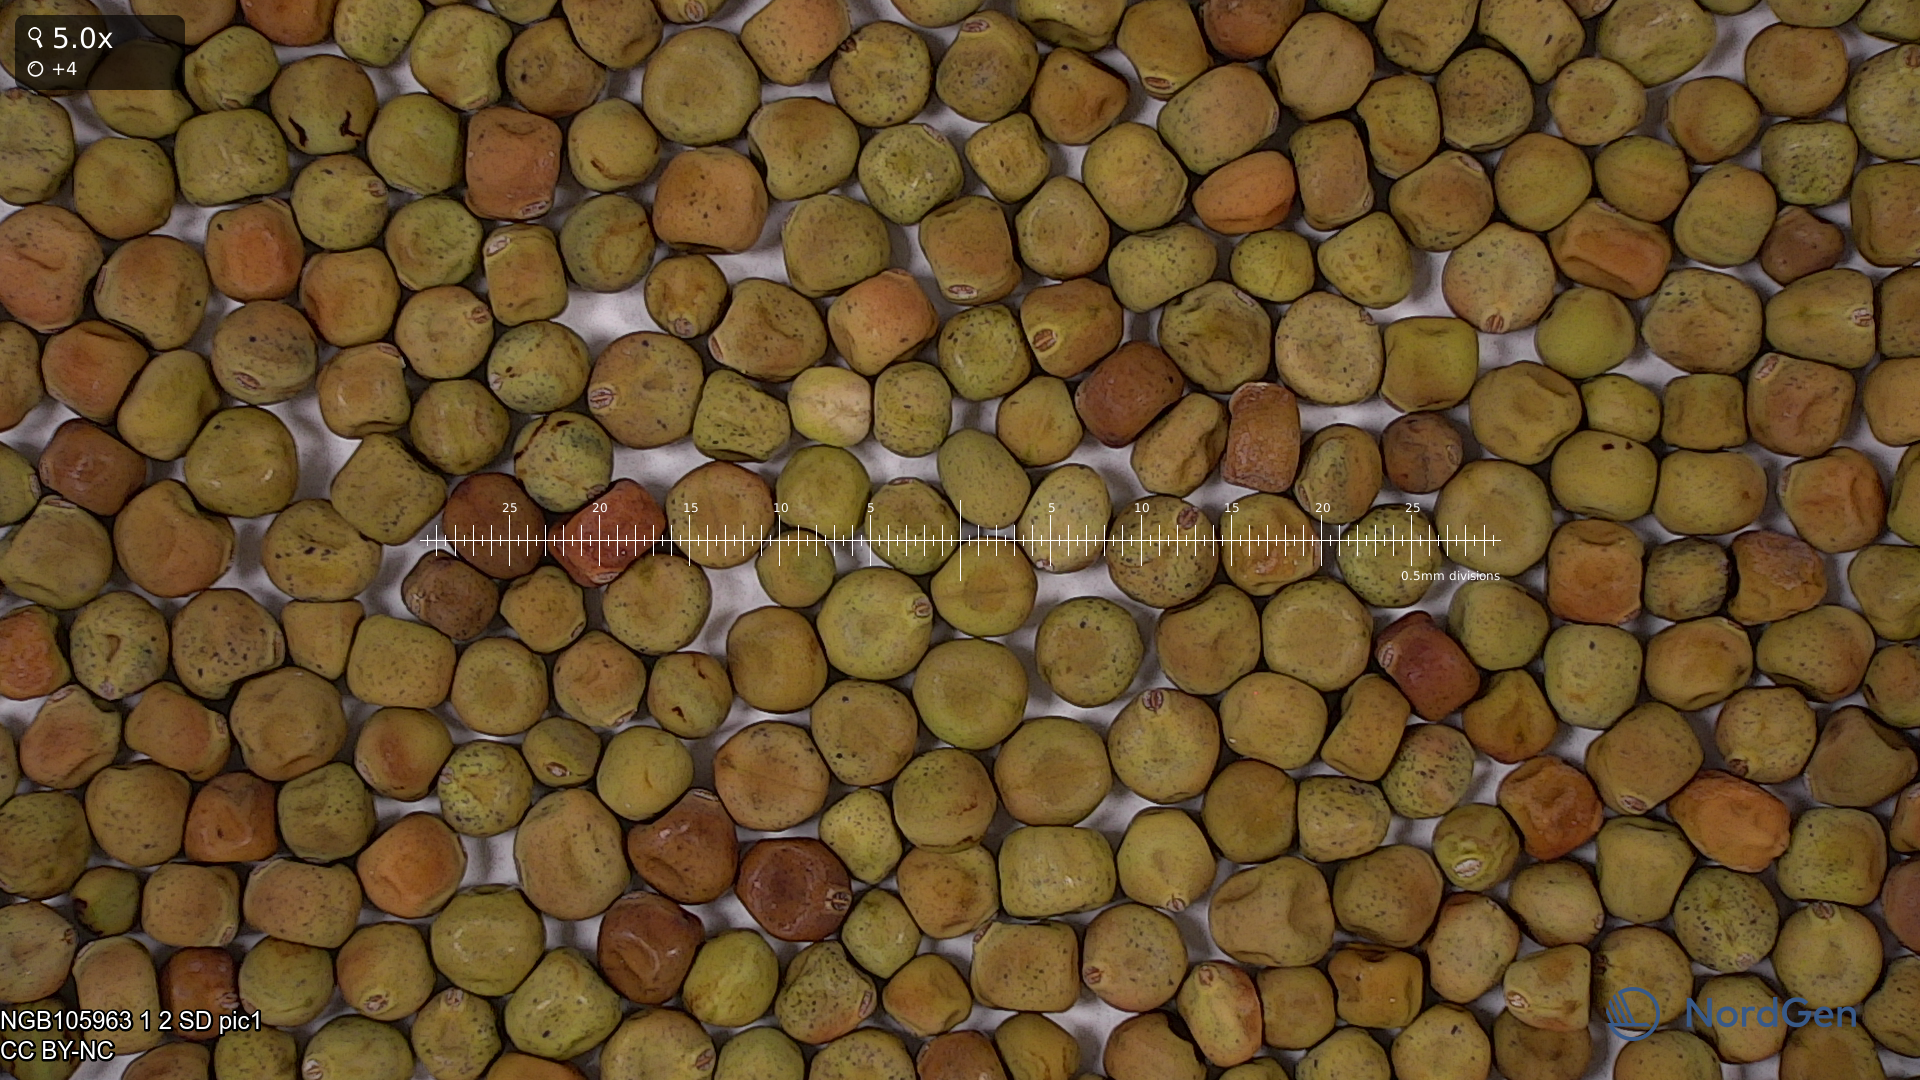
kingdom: Plantae
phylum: Tracheophyta
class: Magnoliopsida
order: Fabales
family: Fabaceae
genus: Lathyrus
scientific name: Lathyrus oleraceus
